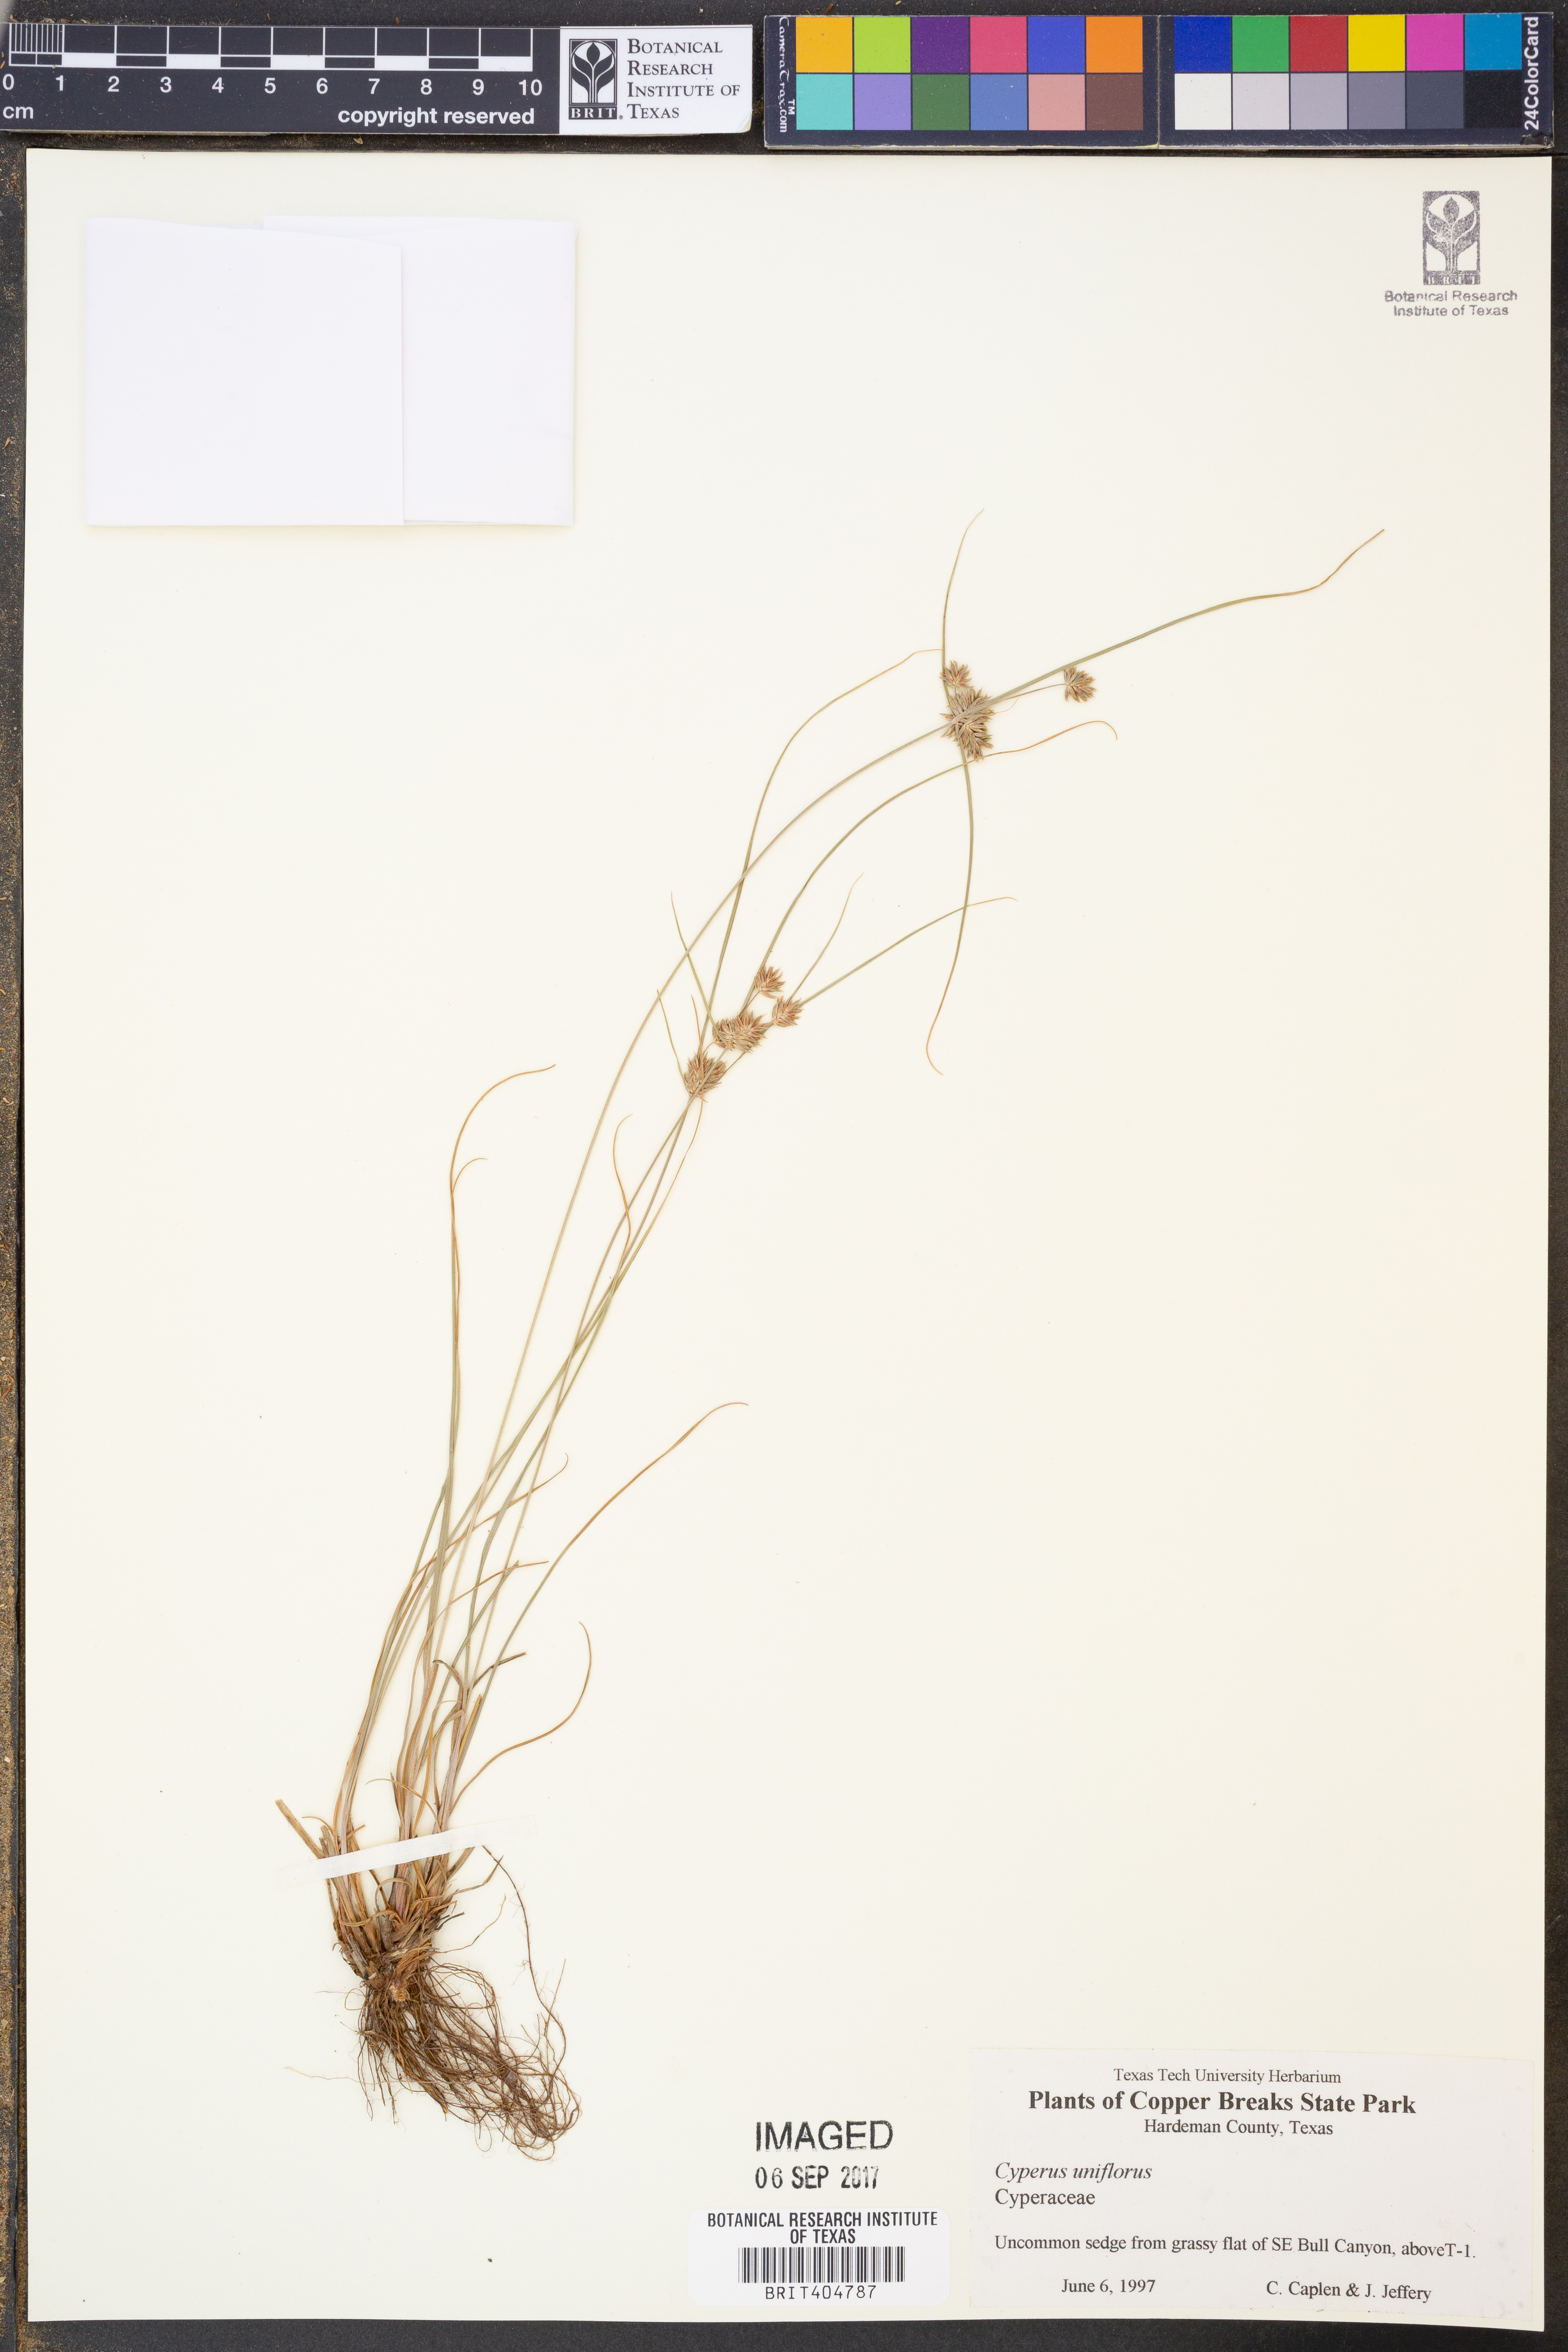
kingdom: Plantae
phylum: Tracheophyta
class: Liliopsida
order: Poales
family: Cyperaceae
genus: Cyperus
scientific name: Cyperus retroflexus
